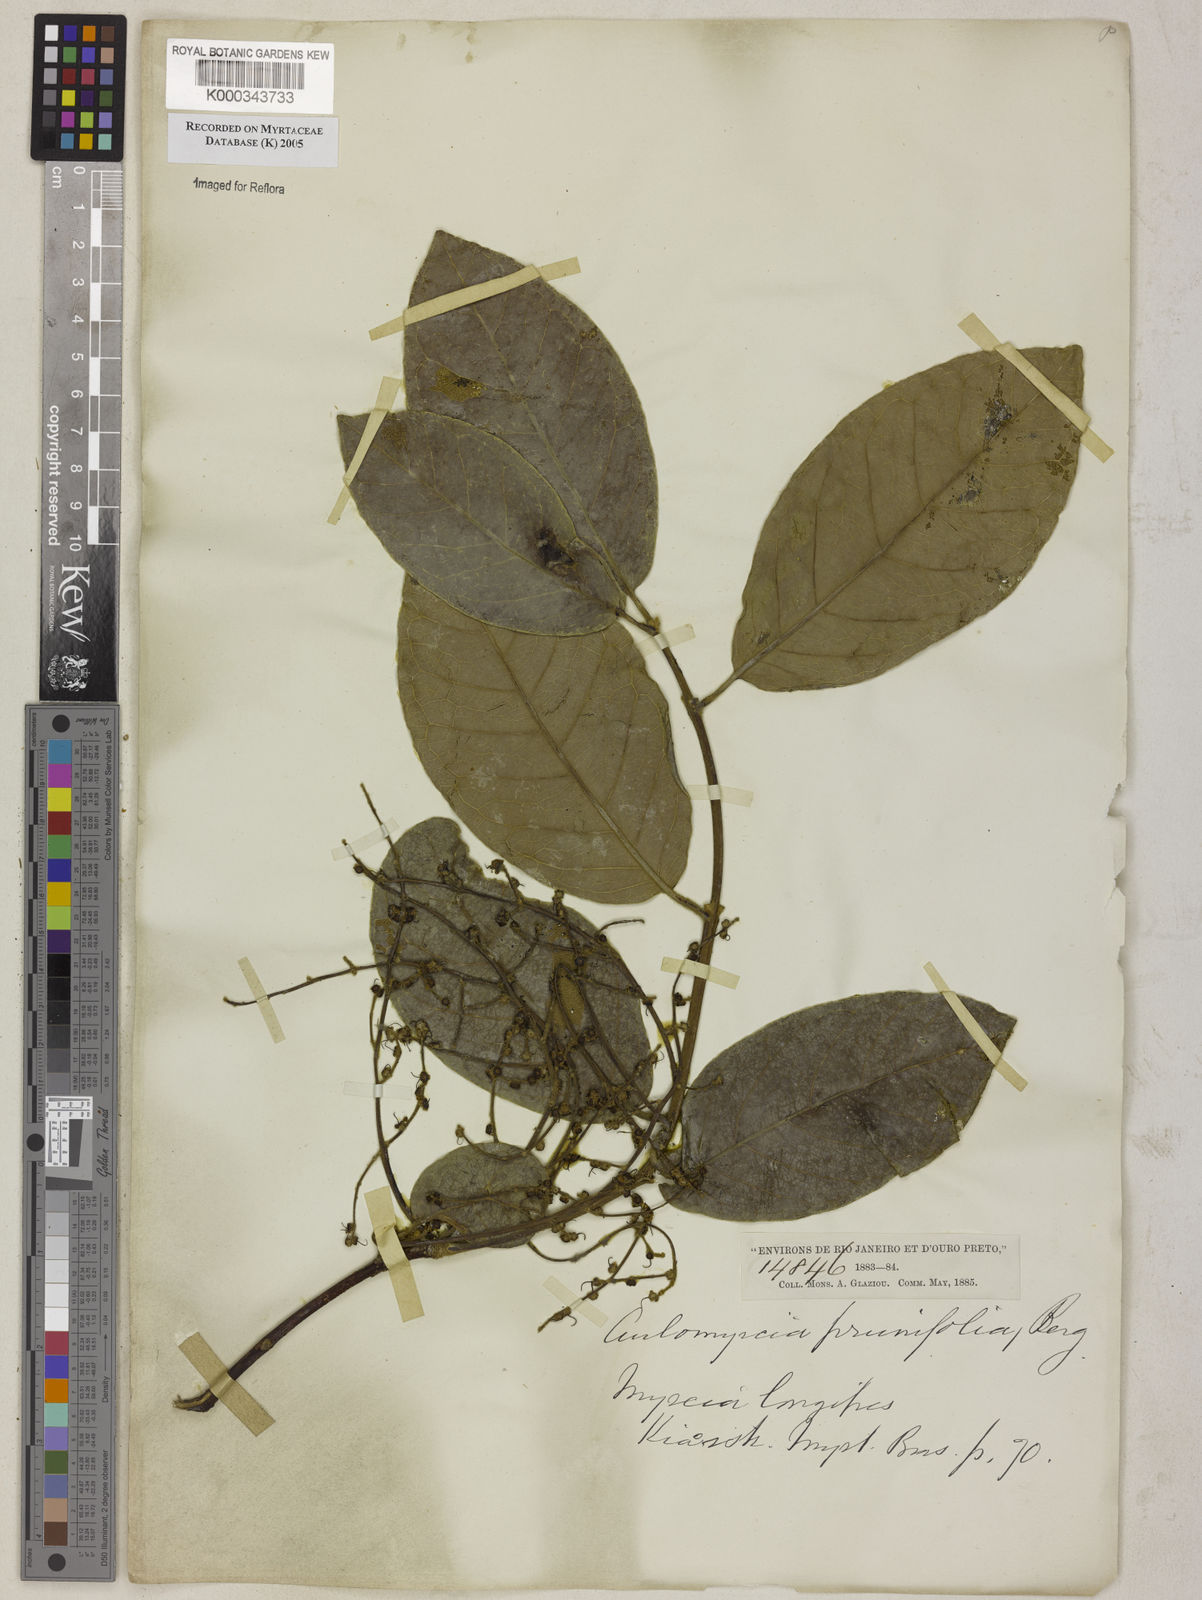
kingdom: Plantae
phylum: Tracheophyta
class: Magnoliopsida
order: Myrtales
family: Myrtaceae
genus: Myrcia
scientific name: Myrcia tomentosa
